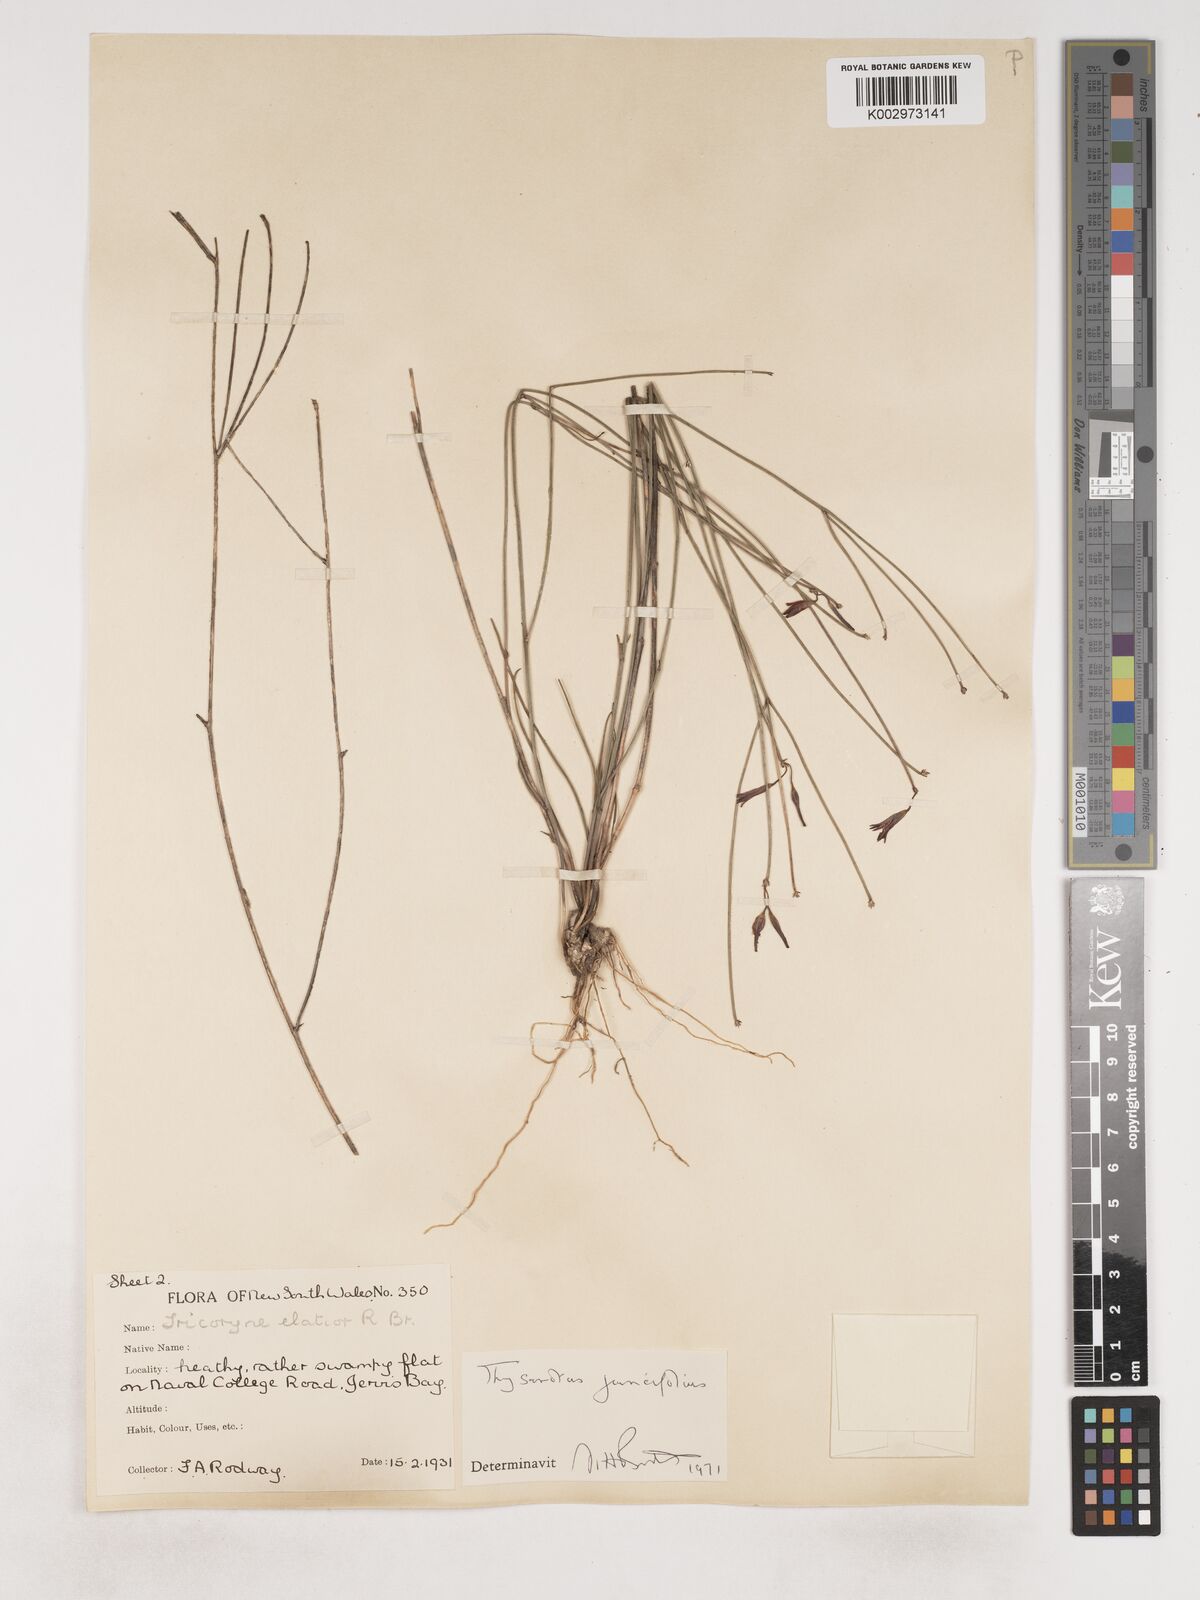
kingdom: Plantae
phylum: Tracheophyta
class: Liliopsida
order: Asparagales
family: Asparagaceae
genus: Thysanotus
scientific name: Thysanotus juncifolius
